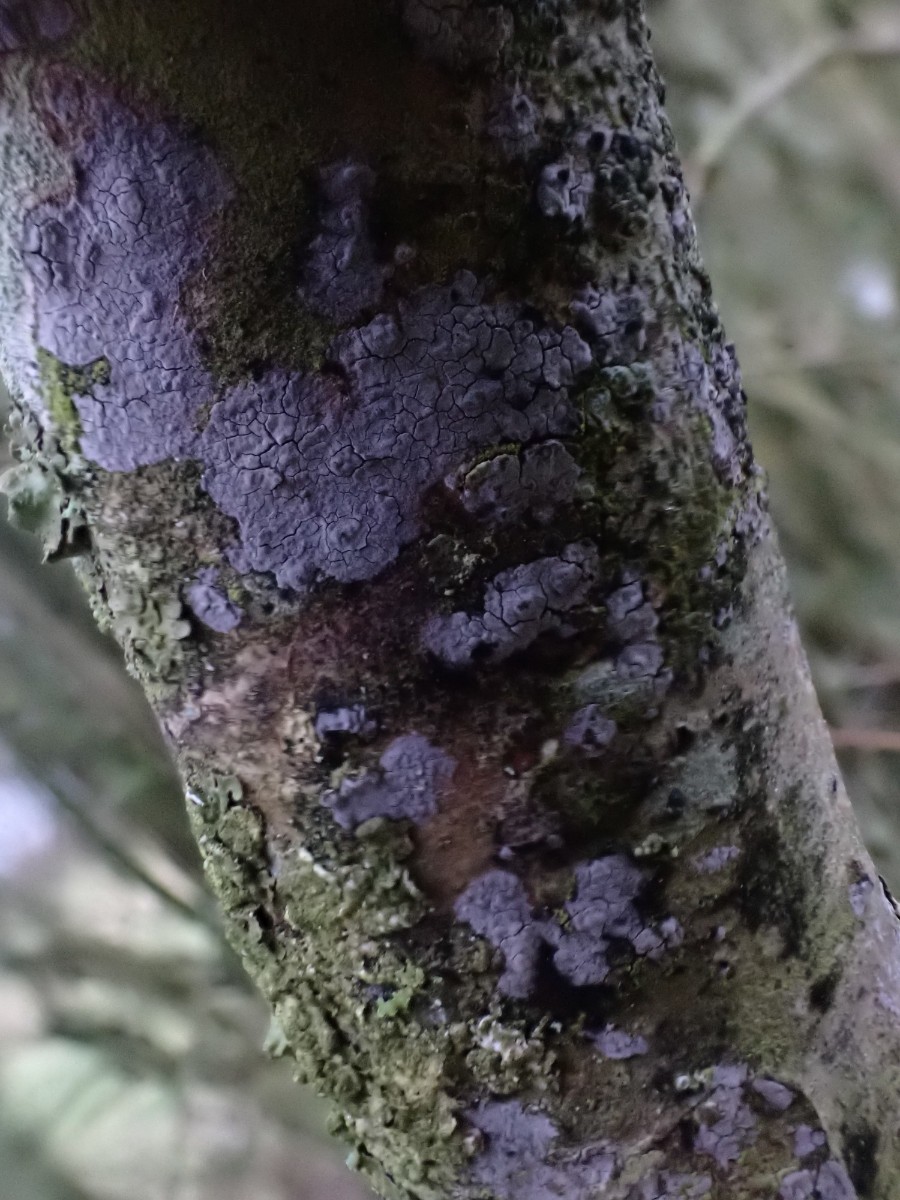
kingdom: Fungi
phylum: Basidiomycota
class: Agaricomycetes
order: Russulales
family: Peniophoraceae
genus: Peniophora
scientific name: Peniophora
